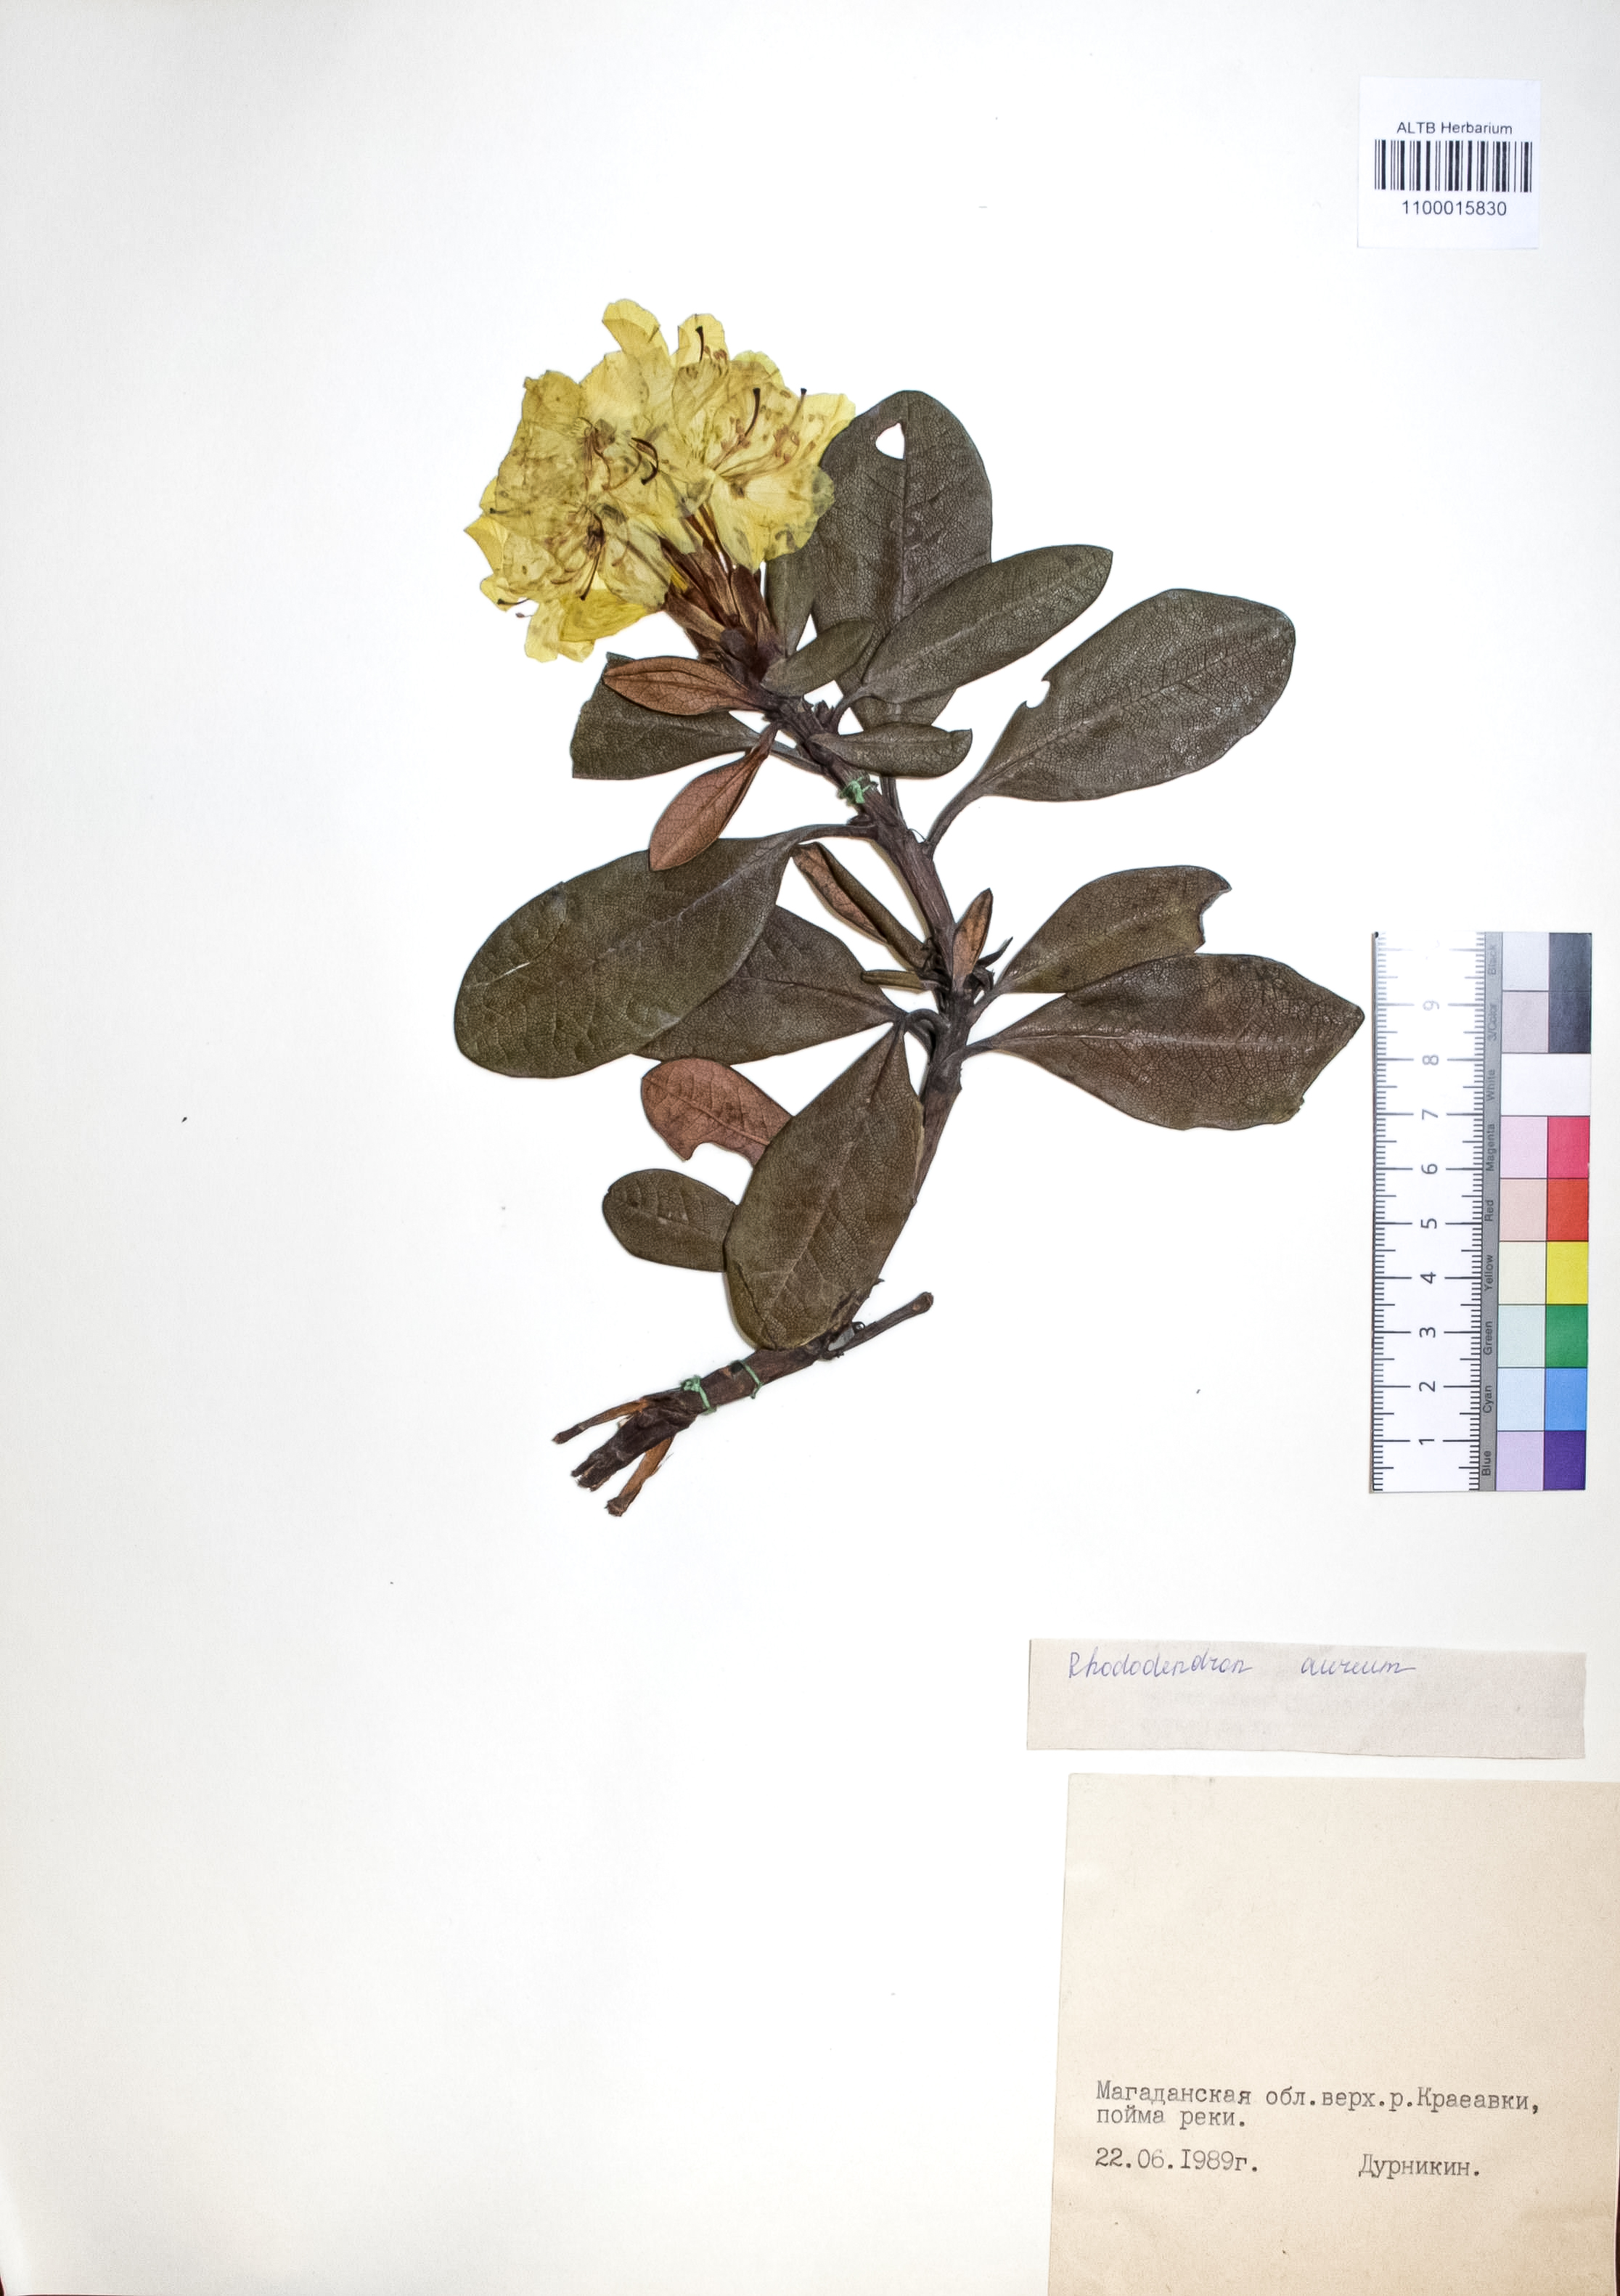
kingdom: Plantae
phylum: Tracheophyta
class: Magnoliopsida
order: Ericales
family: Ericaceae
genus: Rhododendron
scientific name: Rhododendron aureum
